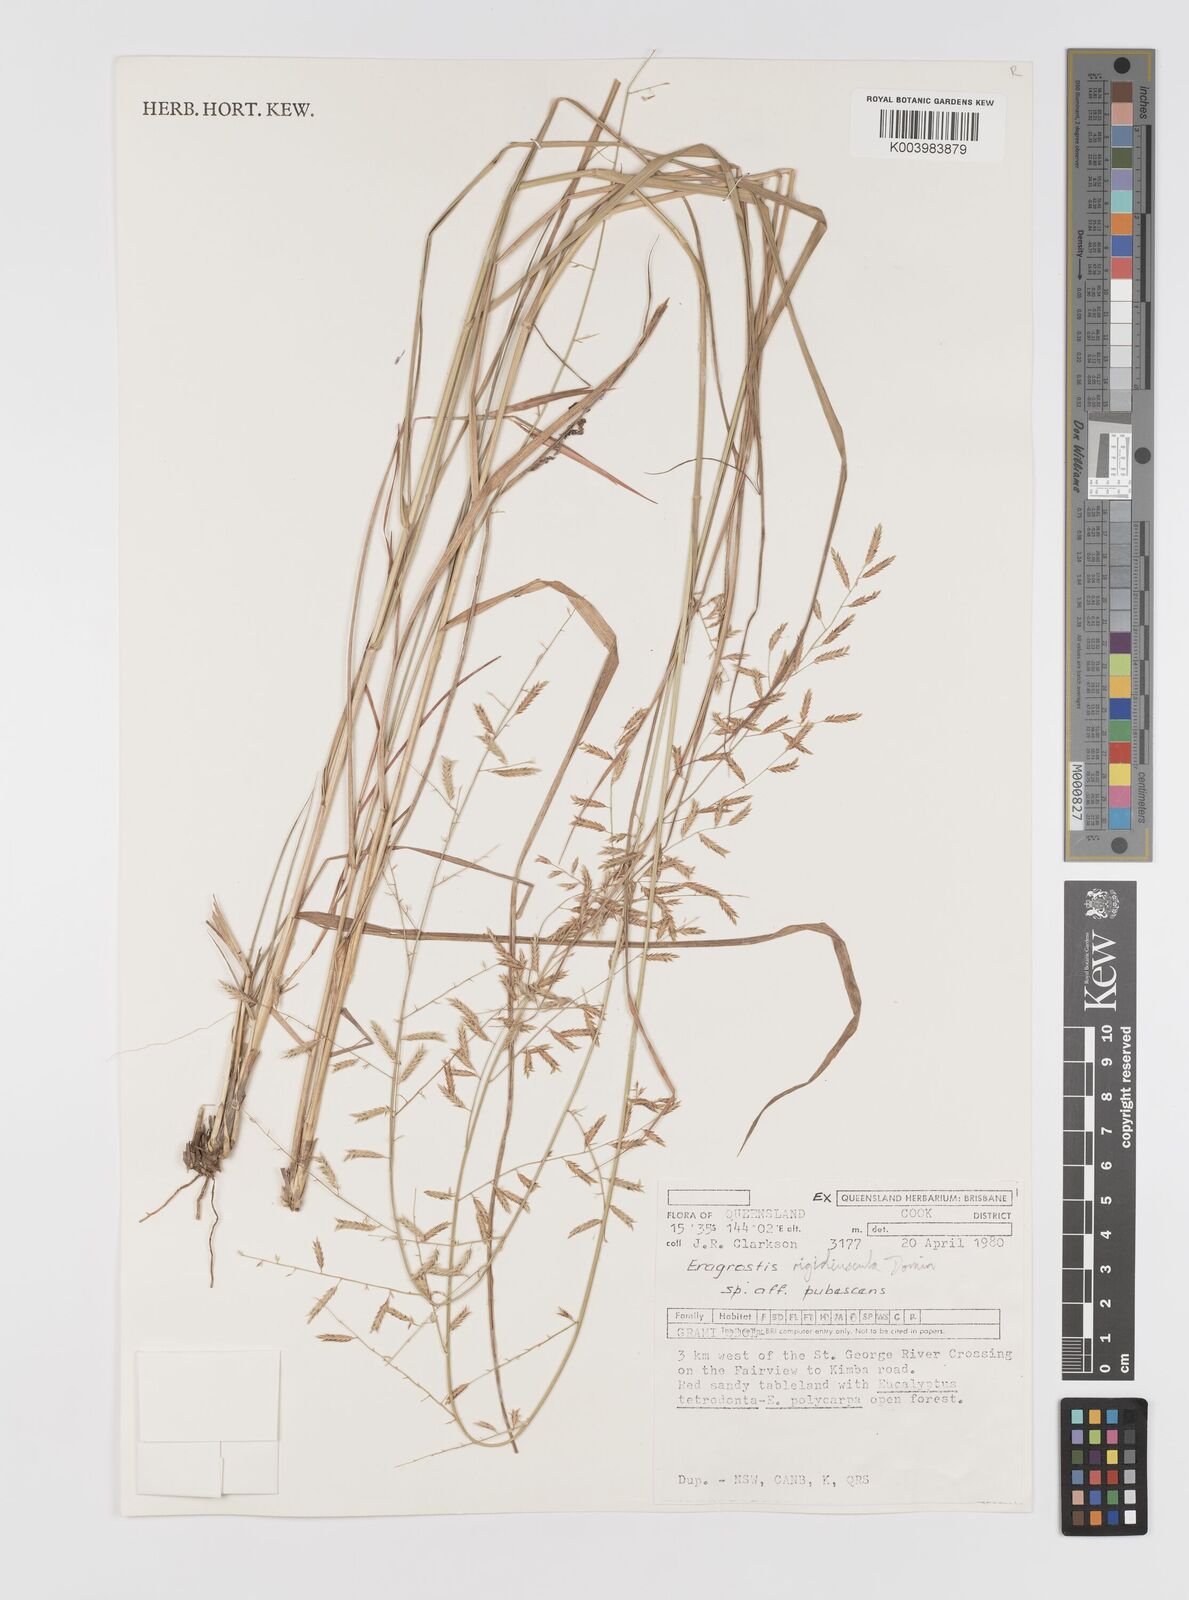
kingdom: Plantae
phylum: Tracheophyta
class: Liliopsida
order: Poales
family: Poaceae
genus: Eragrostis
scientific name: Eragrostis rigidiuscula
